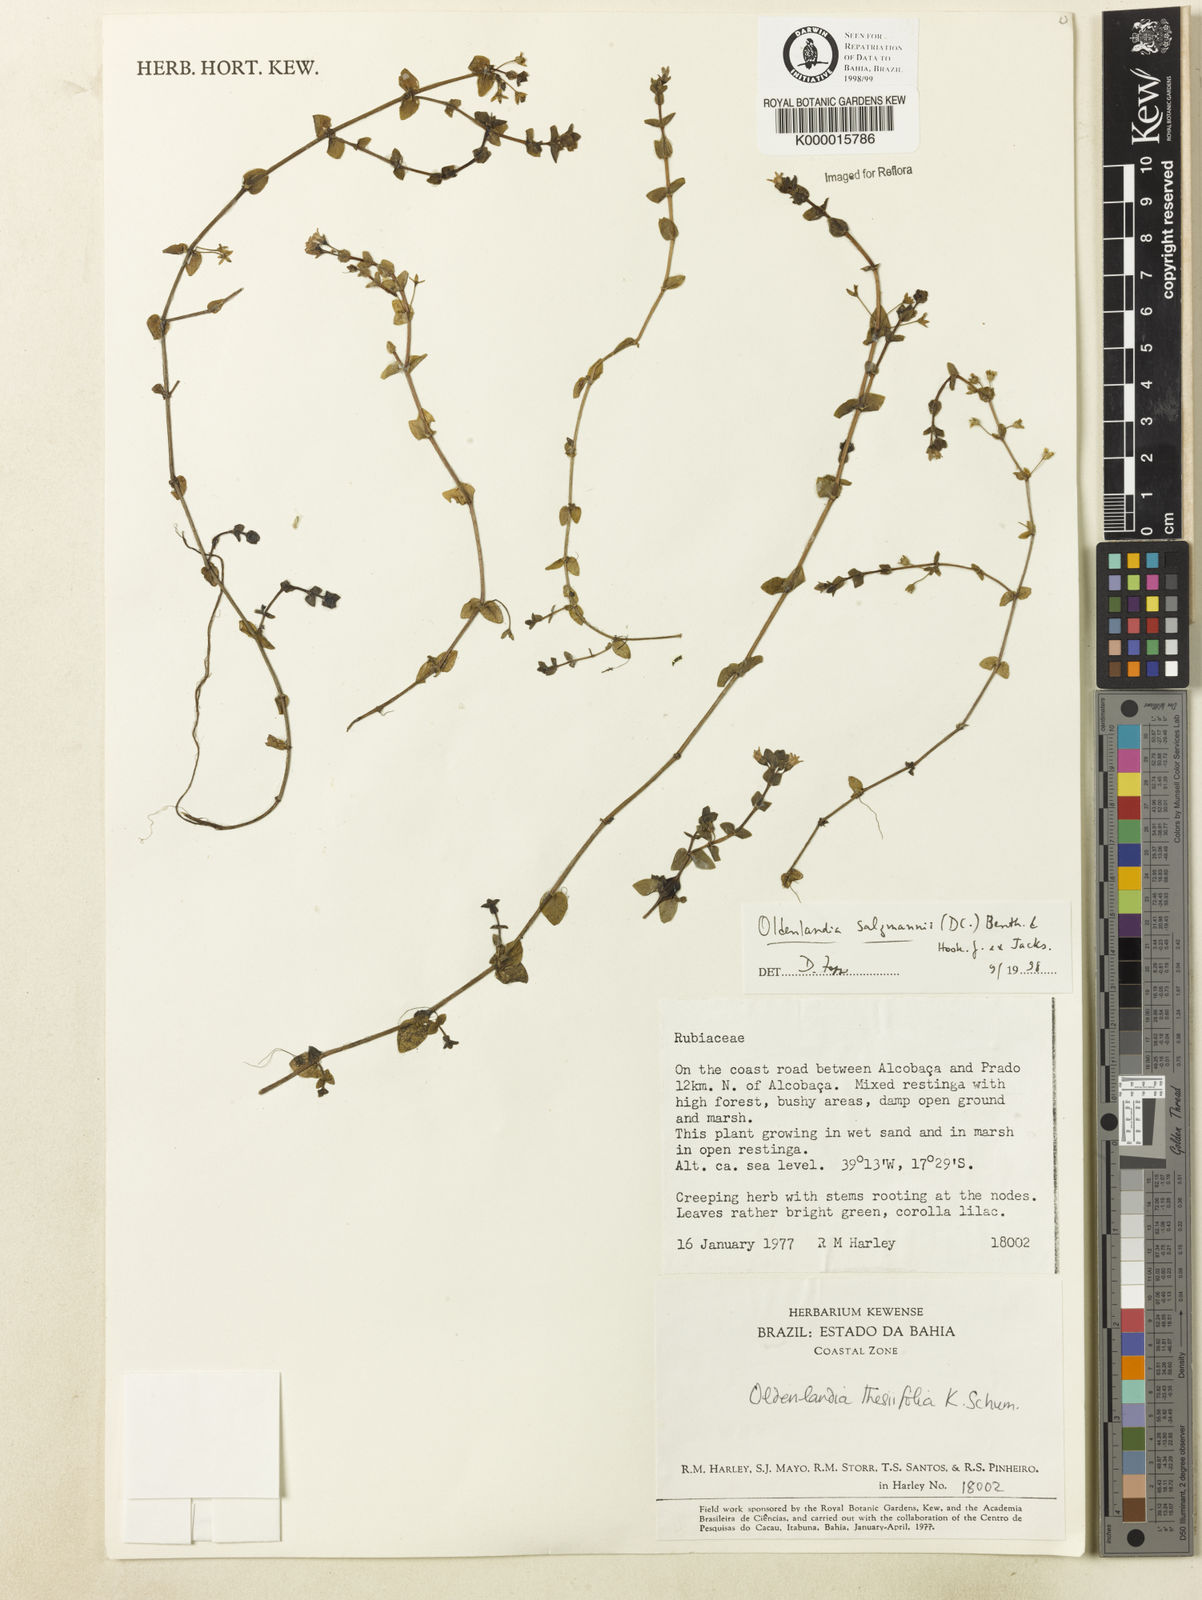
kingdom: Plantae
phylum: Tracheophyta
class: Magnoliopsida
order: Gentianales
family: Rubiaceae
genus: Oldenlandia
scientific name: Oldenlandia salzmannii
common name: Salzmann's mille graines
